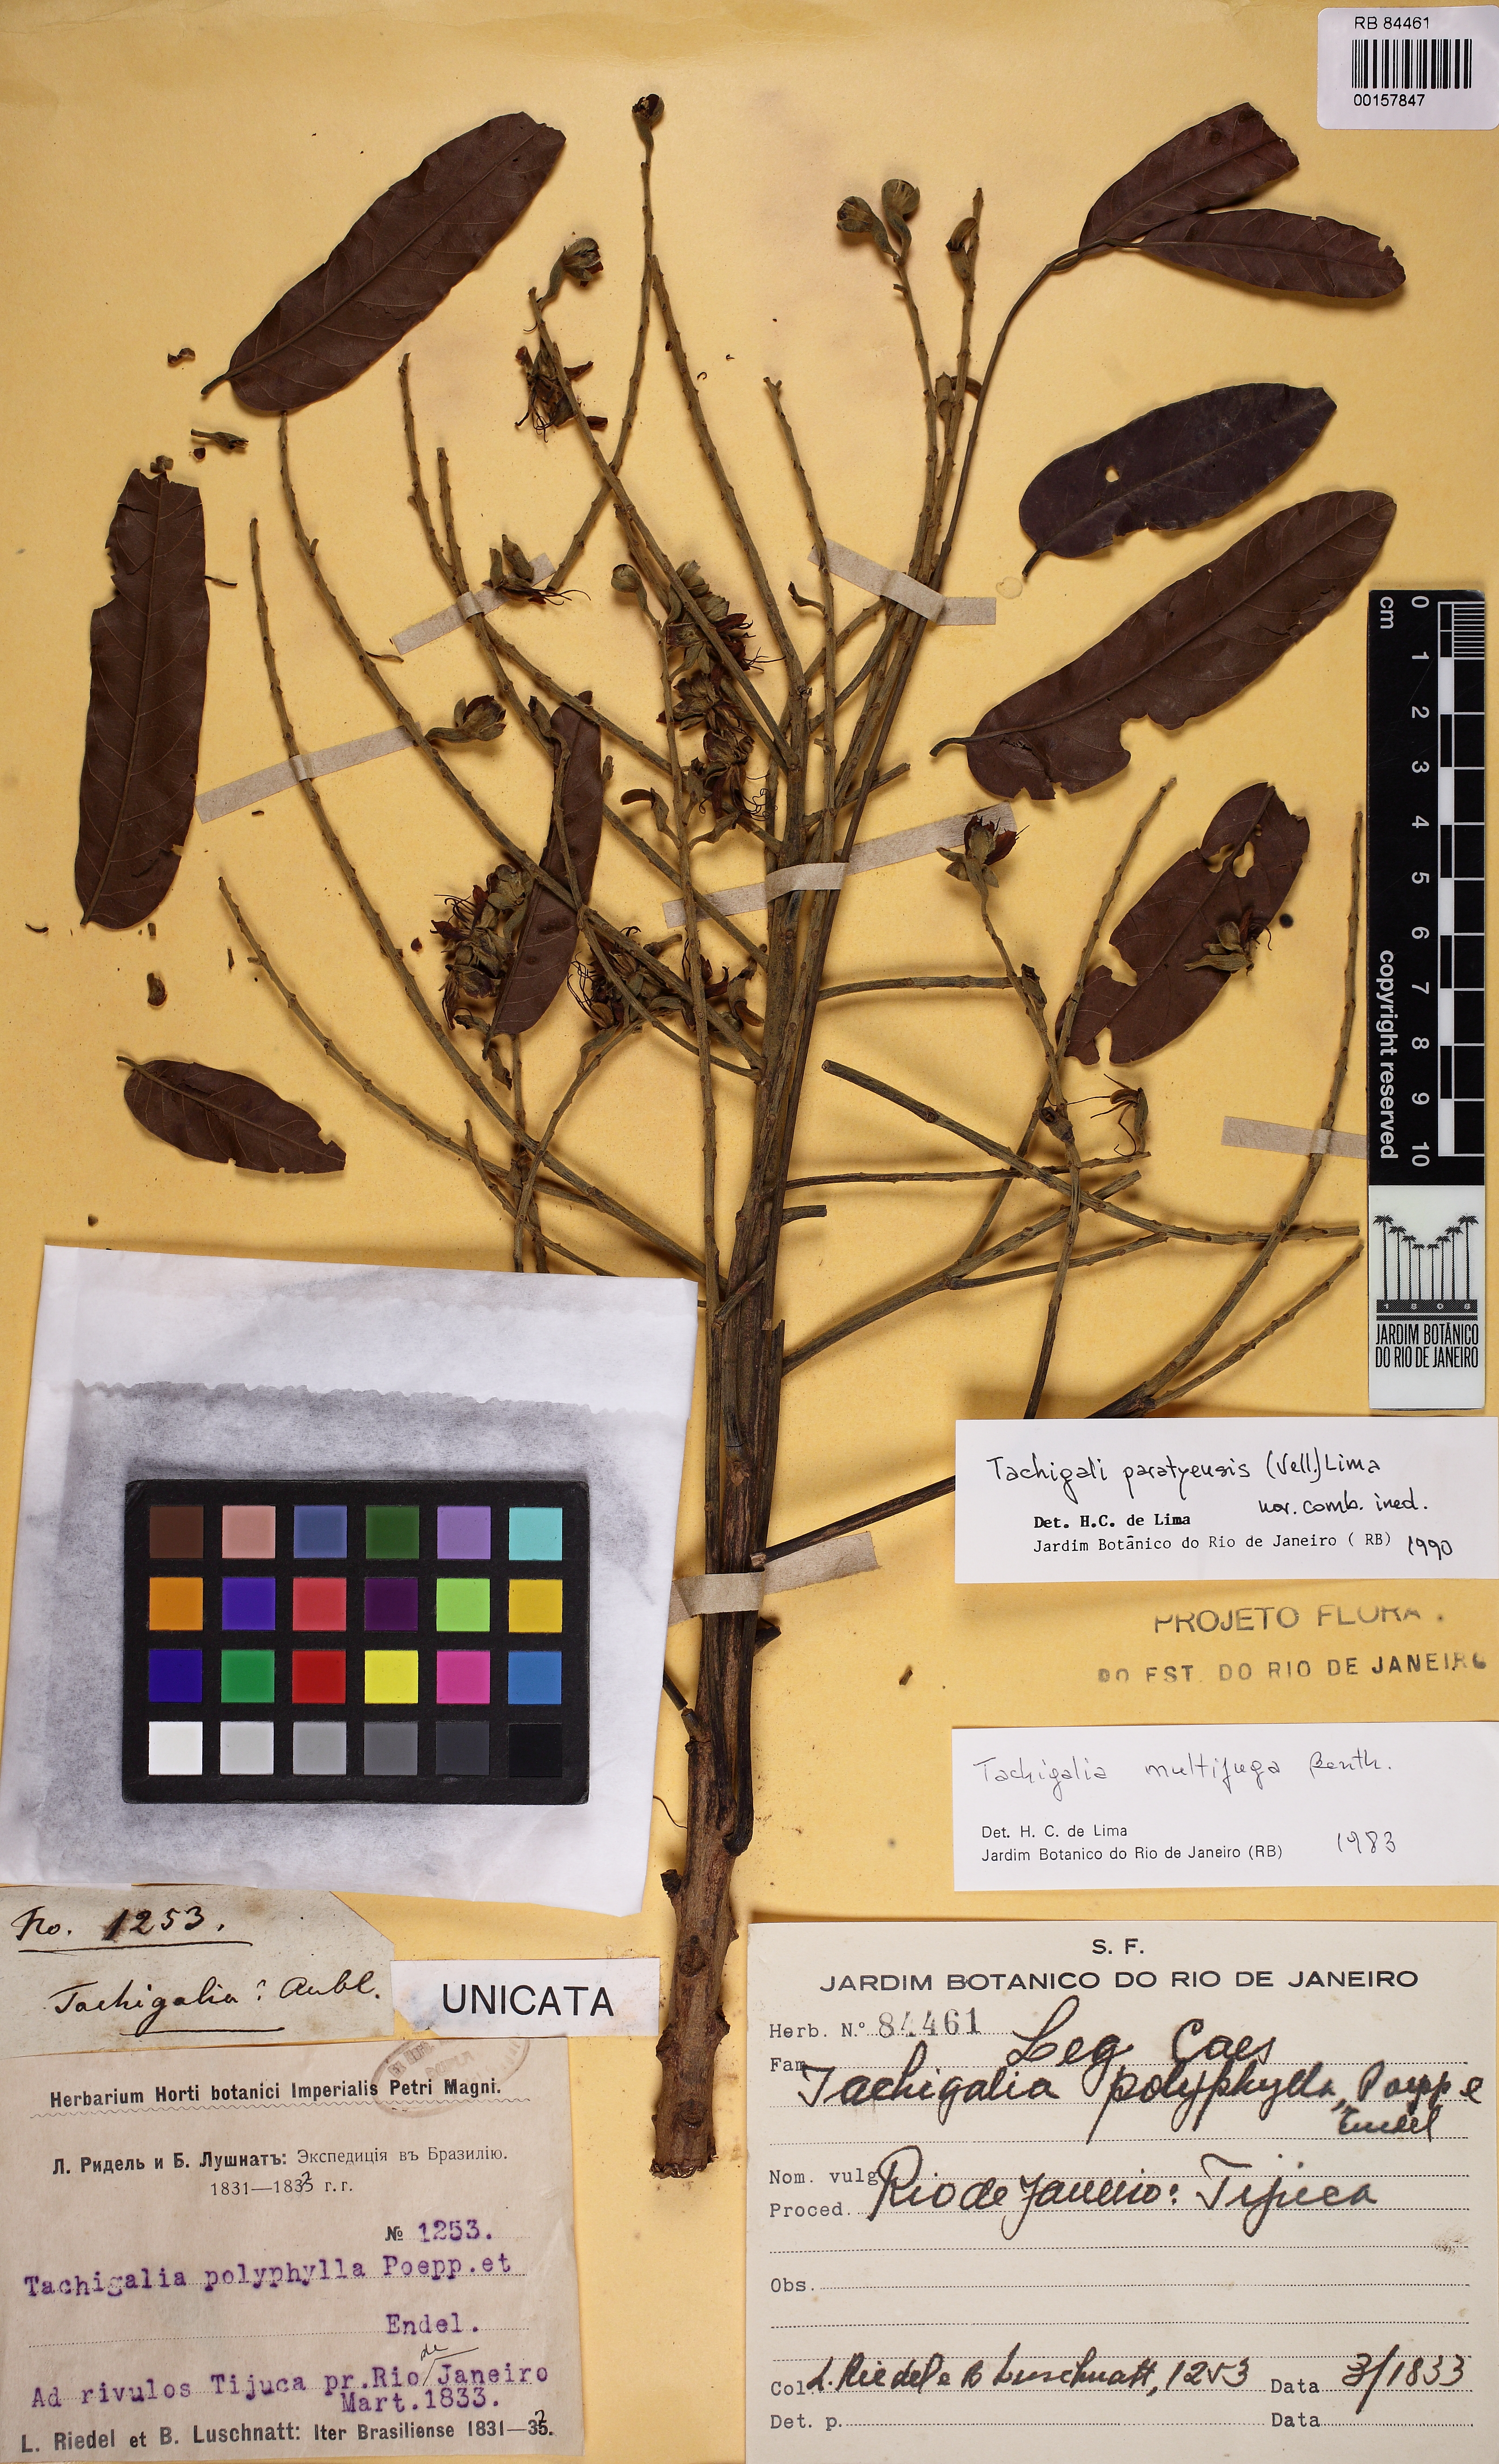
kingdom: Plantae
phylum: Tracheophyta
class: Magnoliopsida
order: Fabales
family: Fabaceae
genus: Tachigali
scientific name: Tachigali paratyensis
